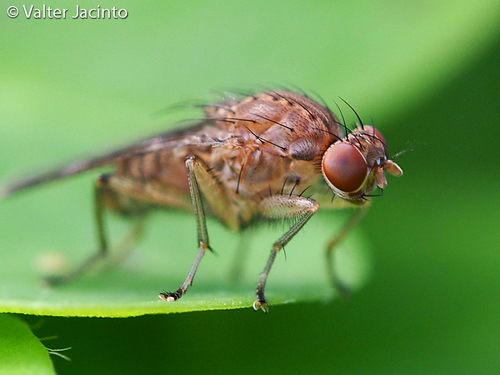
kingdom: Animalia
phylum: Arthropoda
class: Insecta
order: Diptera
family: Heleomyzidae
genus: Suillia
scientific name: Suillia variegata
